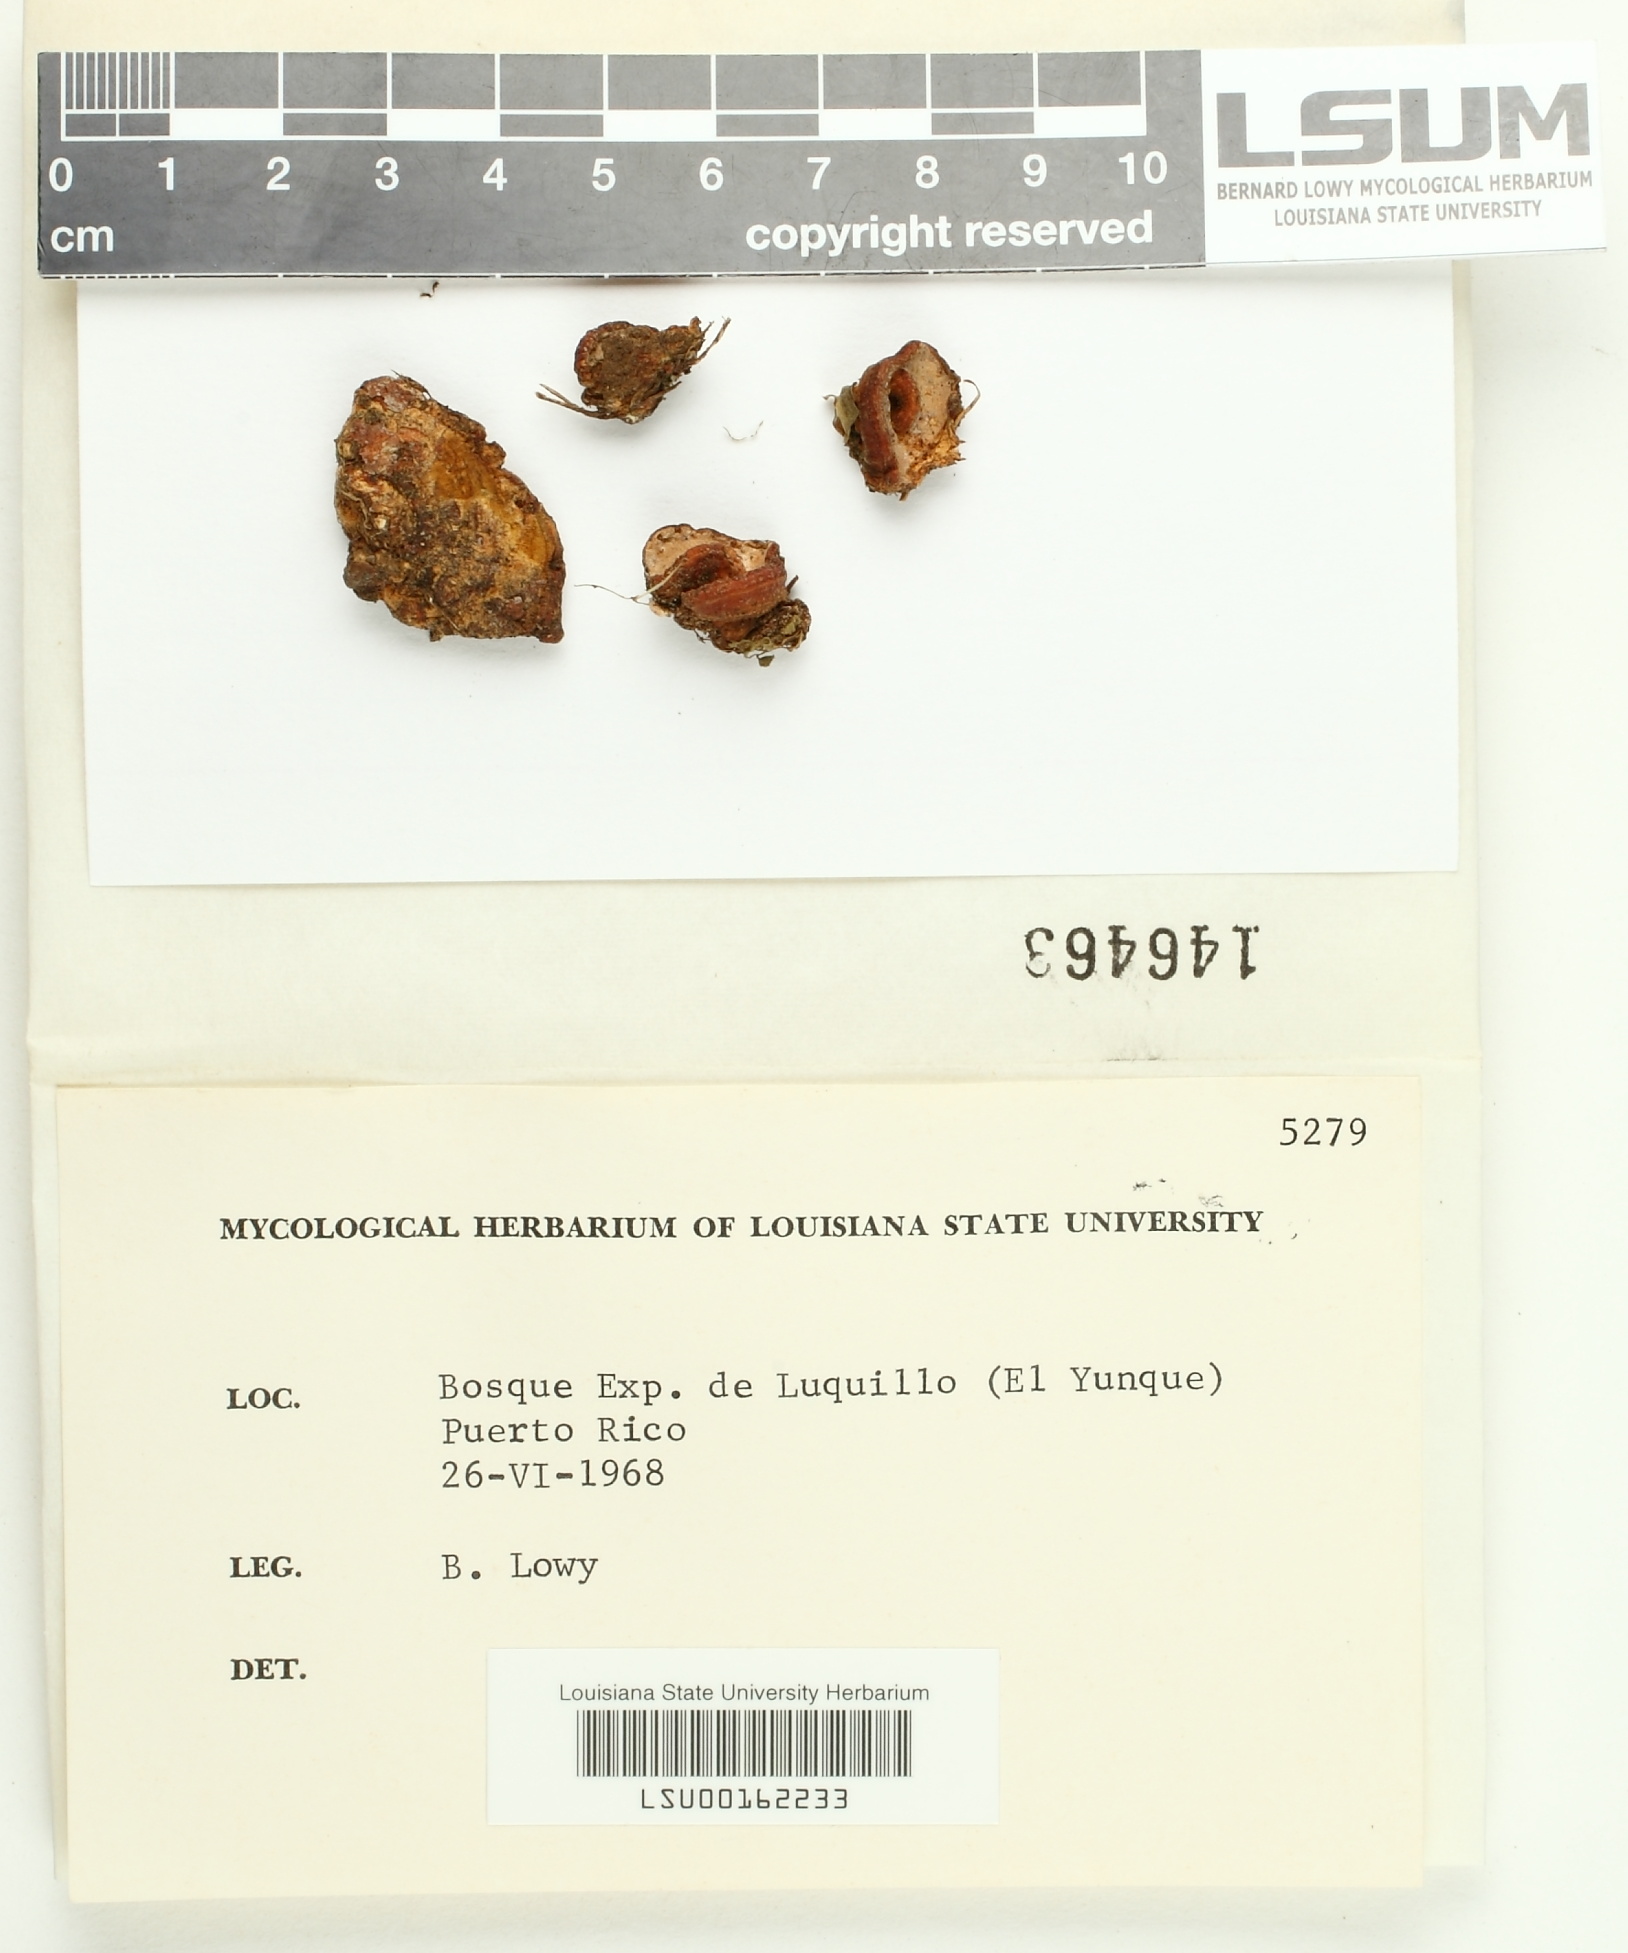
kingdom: Fungi
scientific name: Fungi
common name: Fungi
